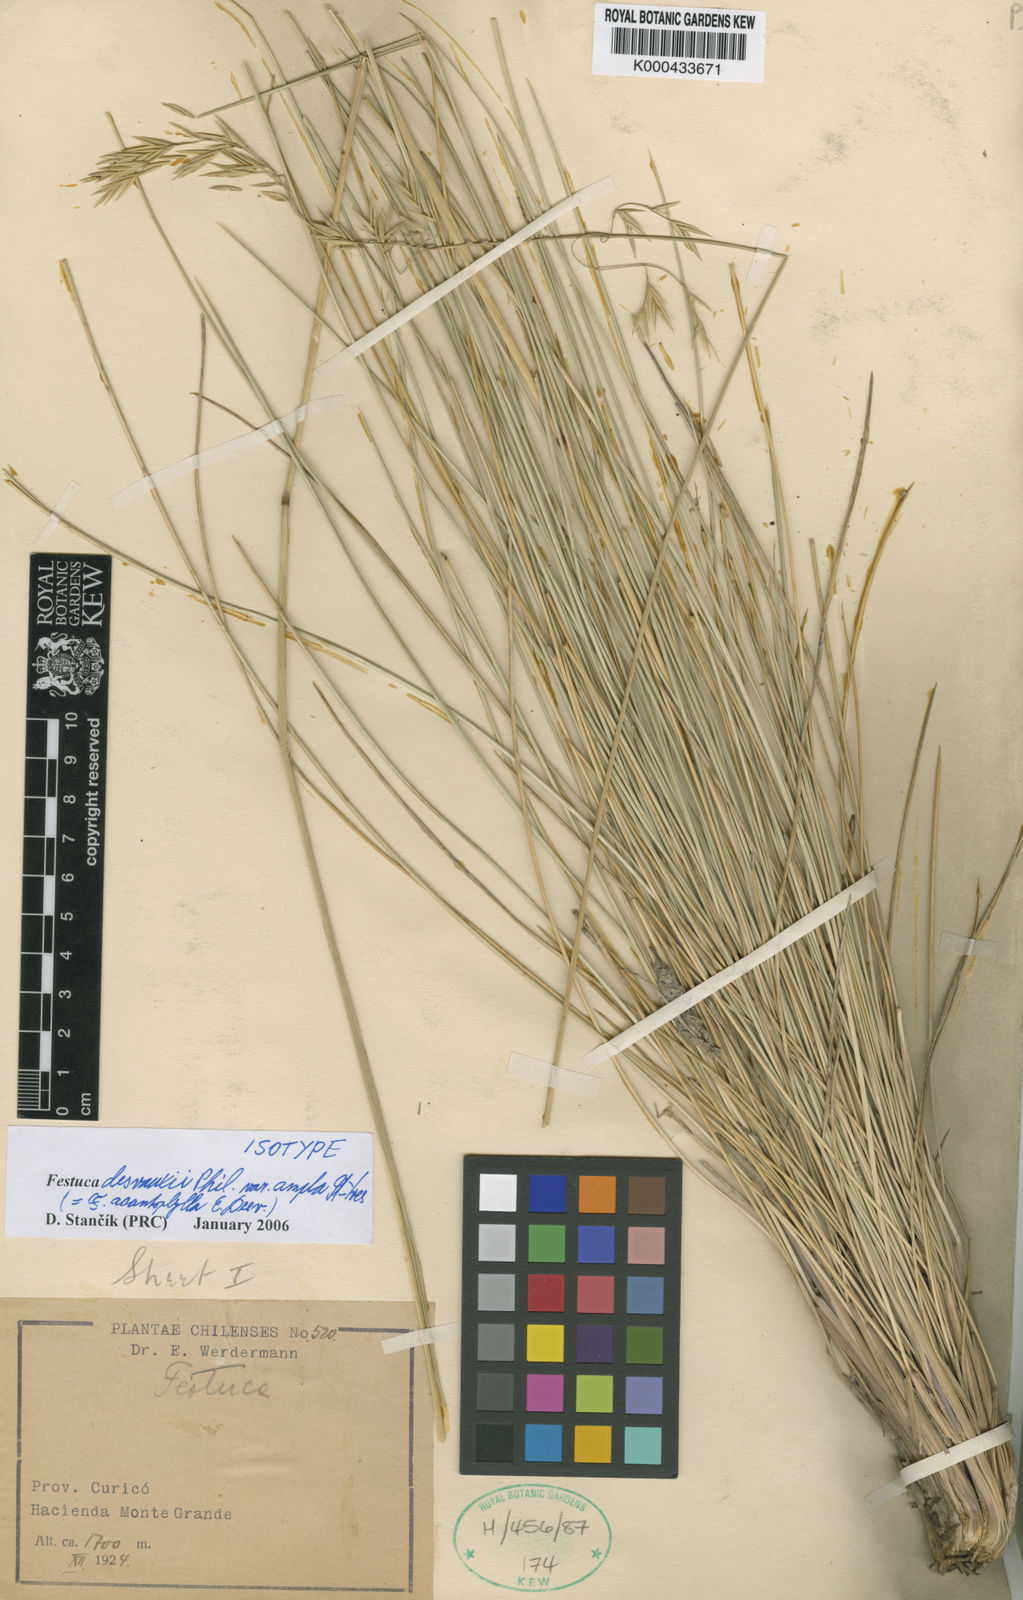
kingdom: Plantae
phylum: Tracheophyta
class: Liliopsida
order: Poales
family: Poaceae
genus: Festuca
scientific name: Festuca acanthophylla
